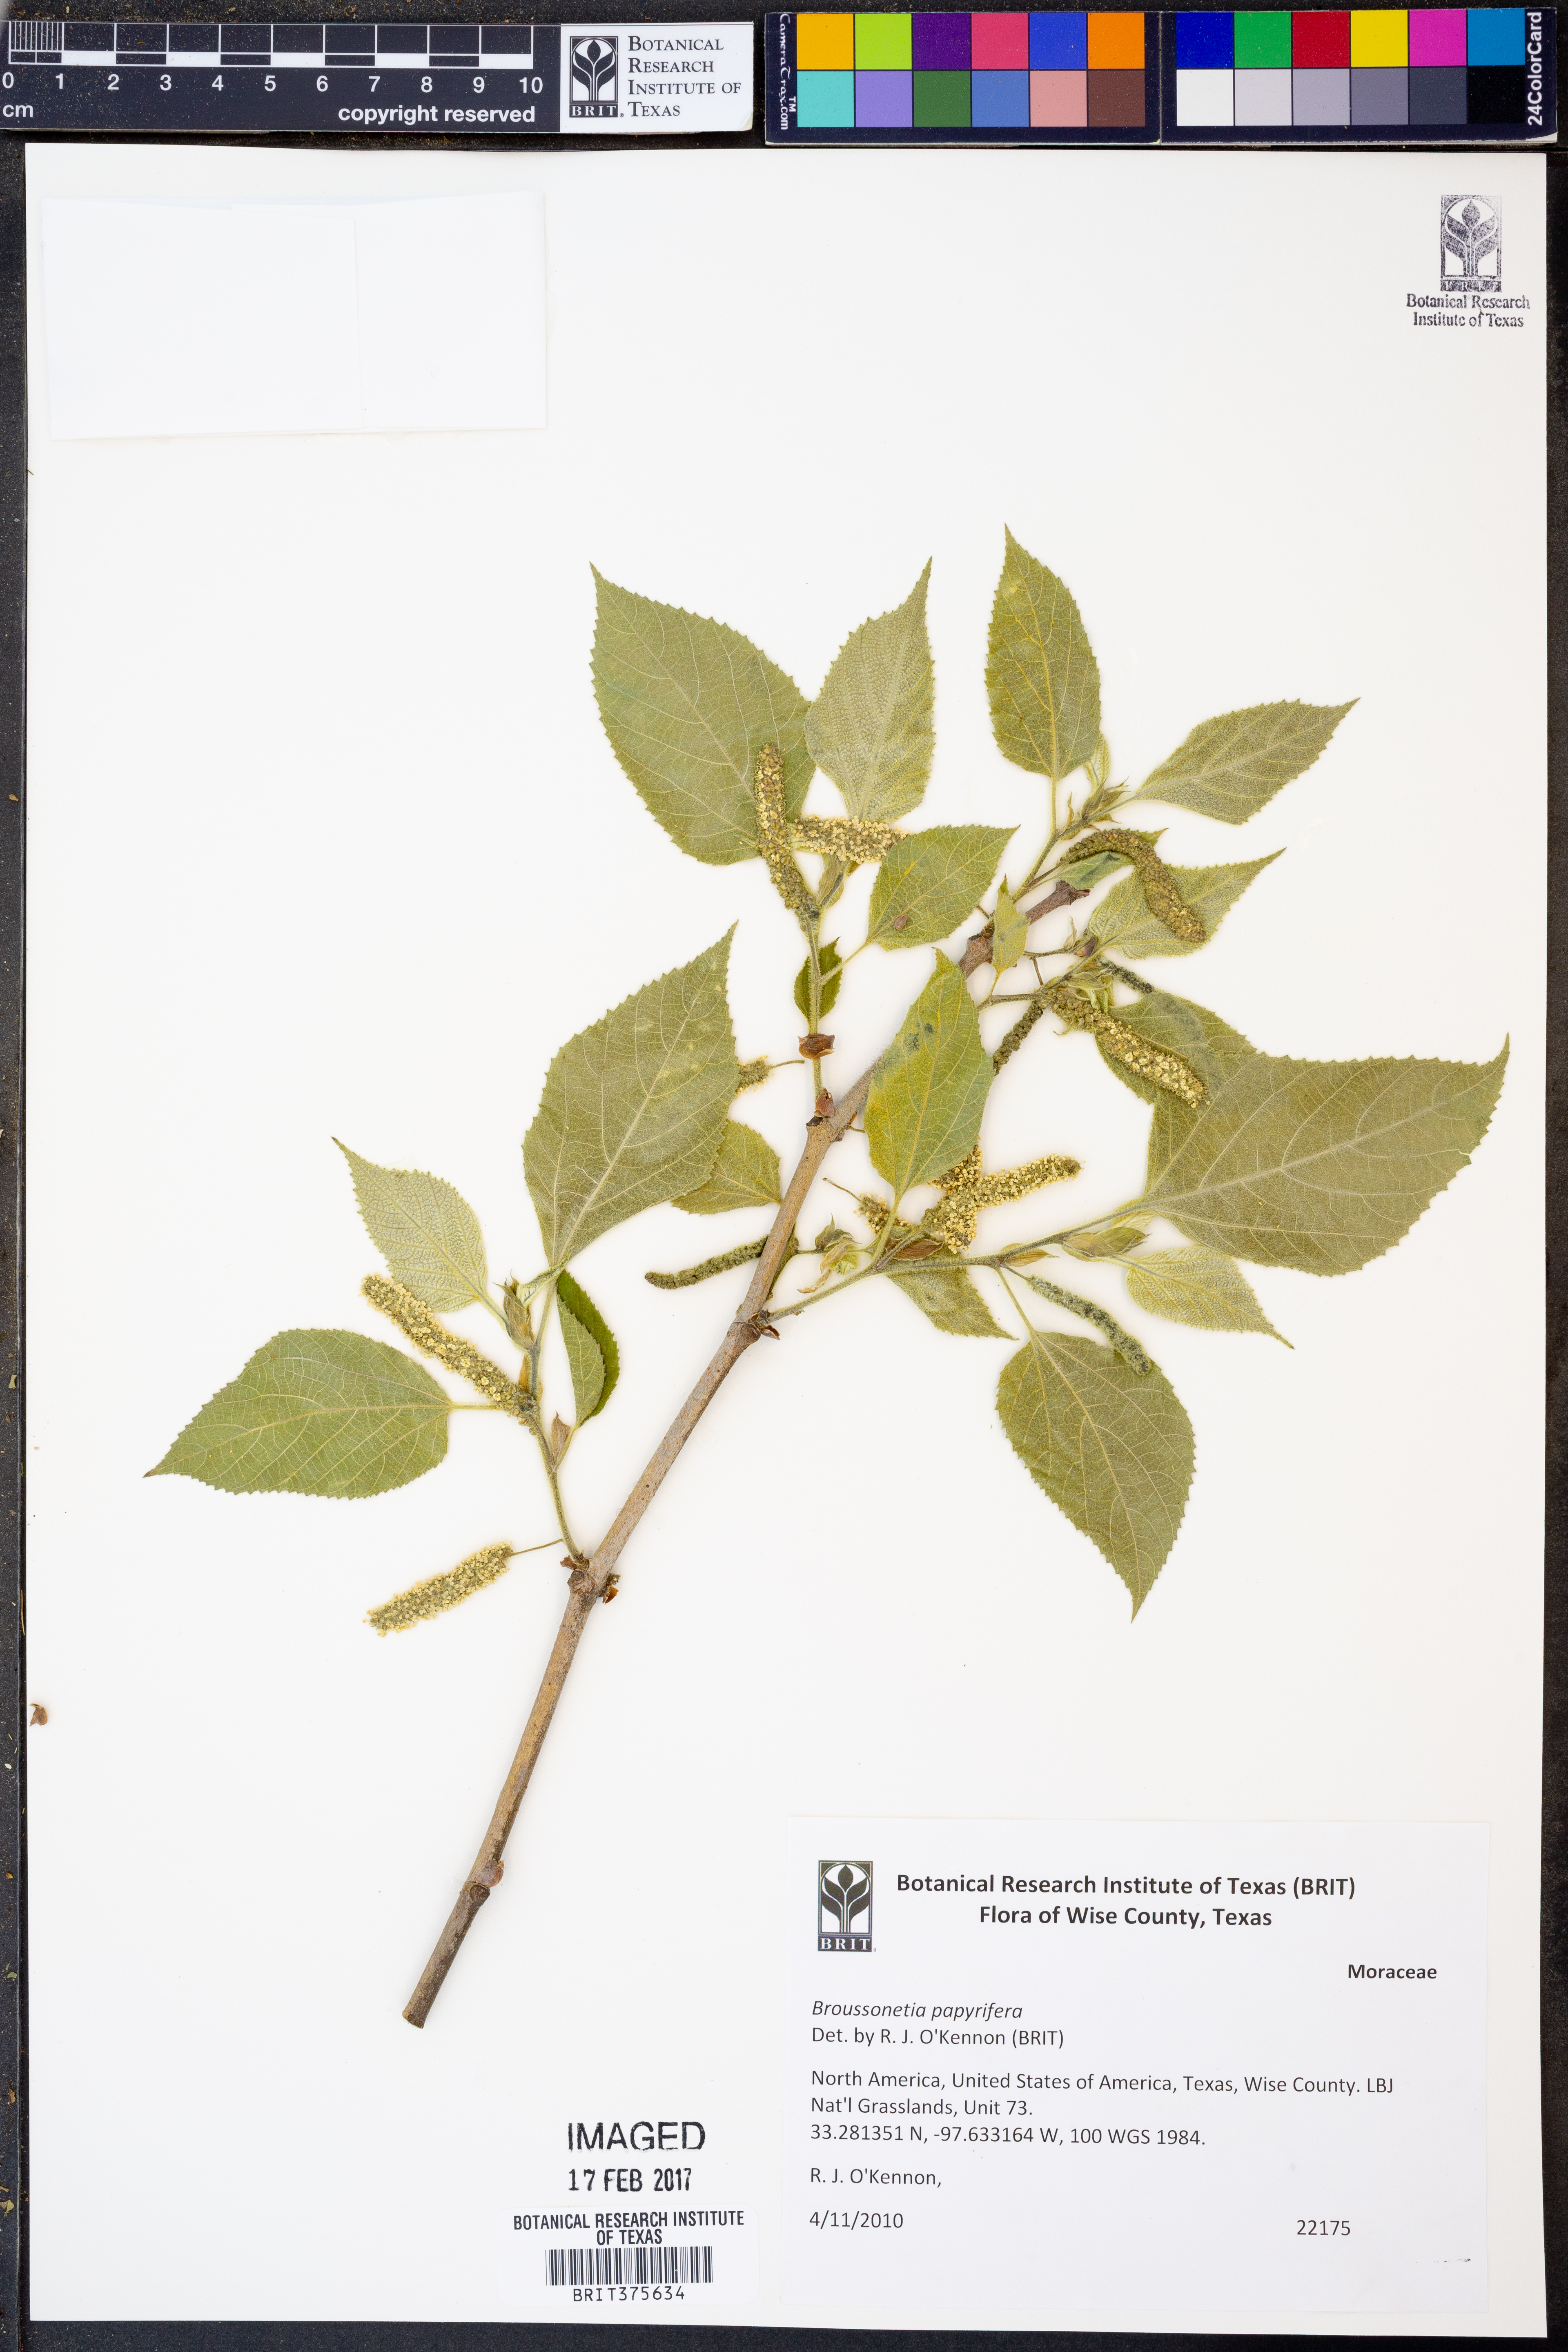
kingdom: Plantae
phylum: Tracheophyta
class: Magnoliopsida
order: Rosales
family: Moraceae
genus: Broussonetia
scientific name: Broussonetia papyrifera
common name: Paper mulberry
